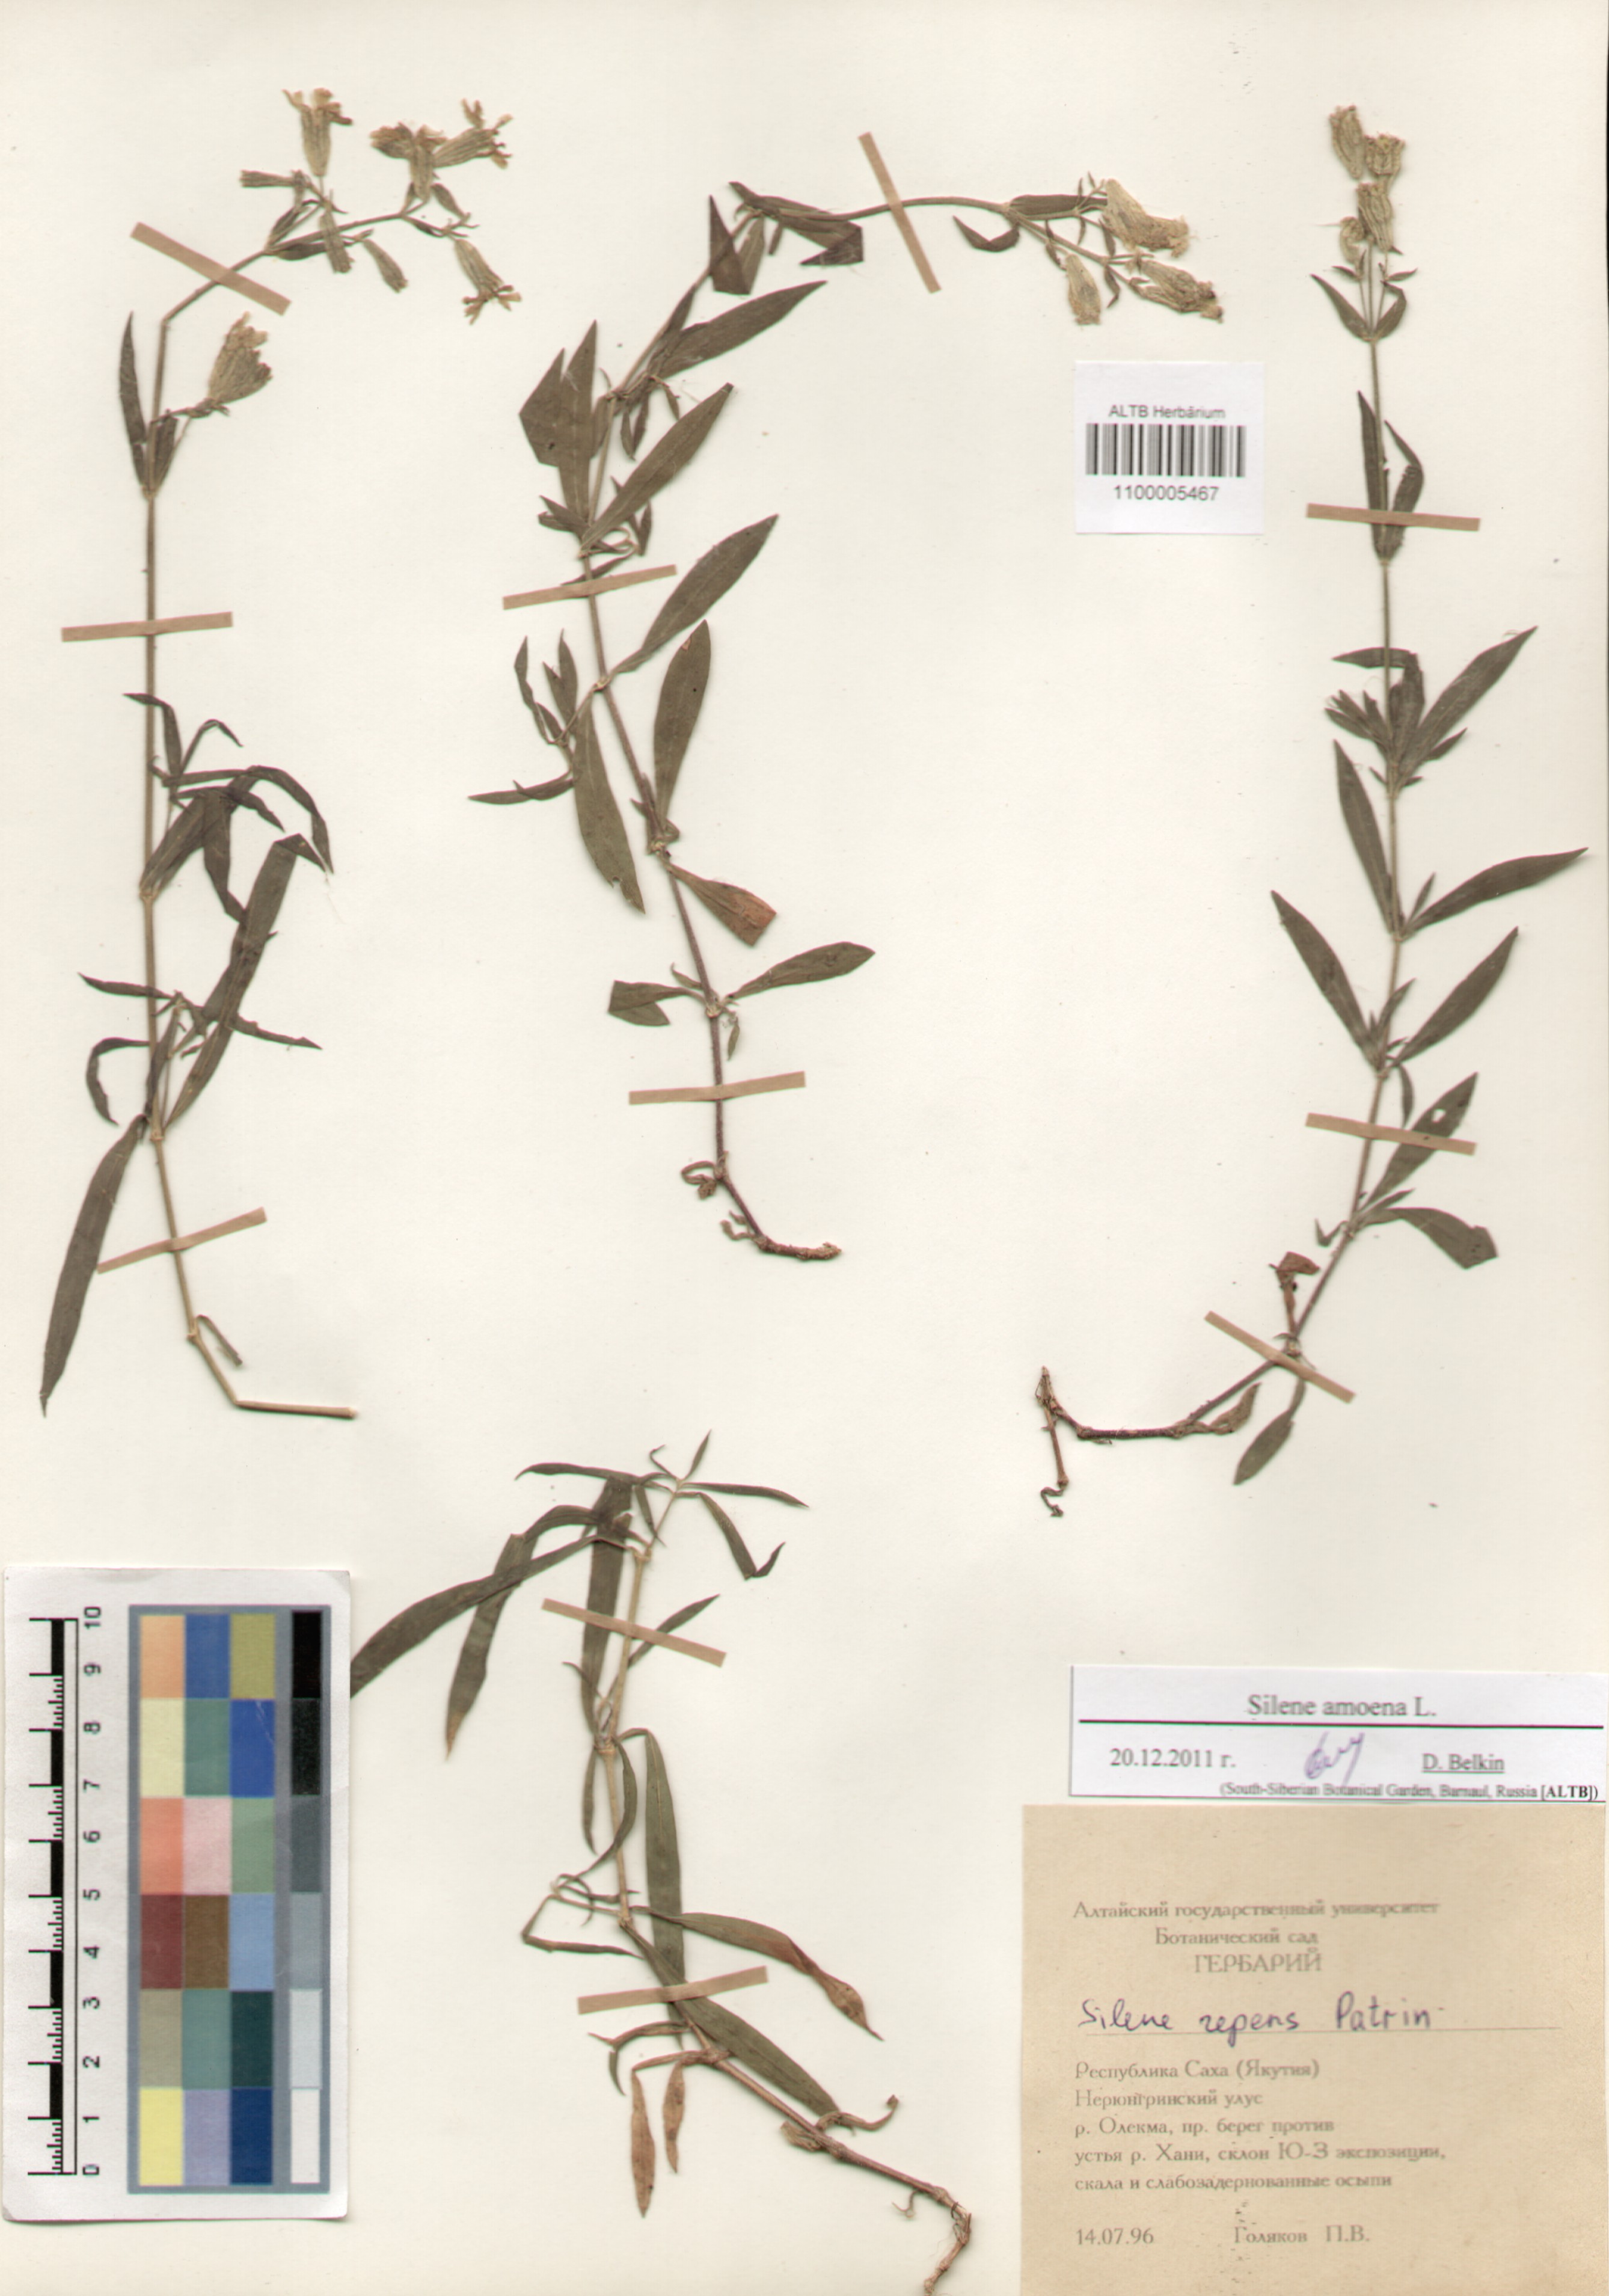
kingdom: Plantae
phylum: Tracheophyta
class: Magnoliopsida
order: Caryophyllales
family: Caryophyllaceae
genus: Silene
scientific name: Silene amoena
